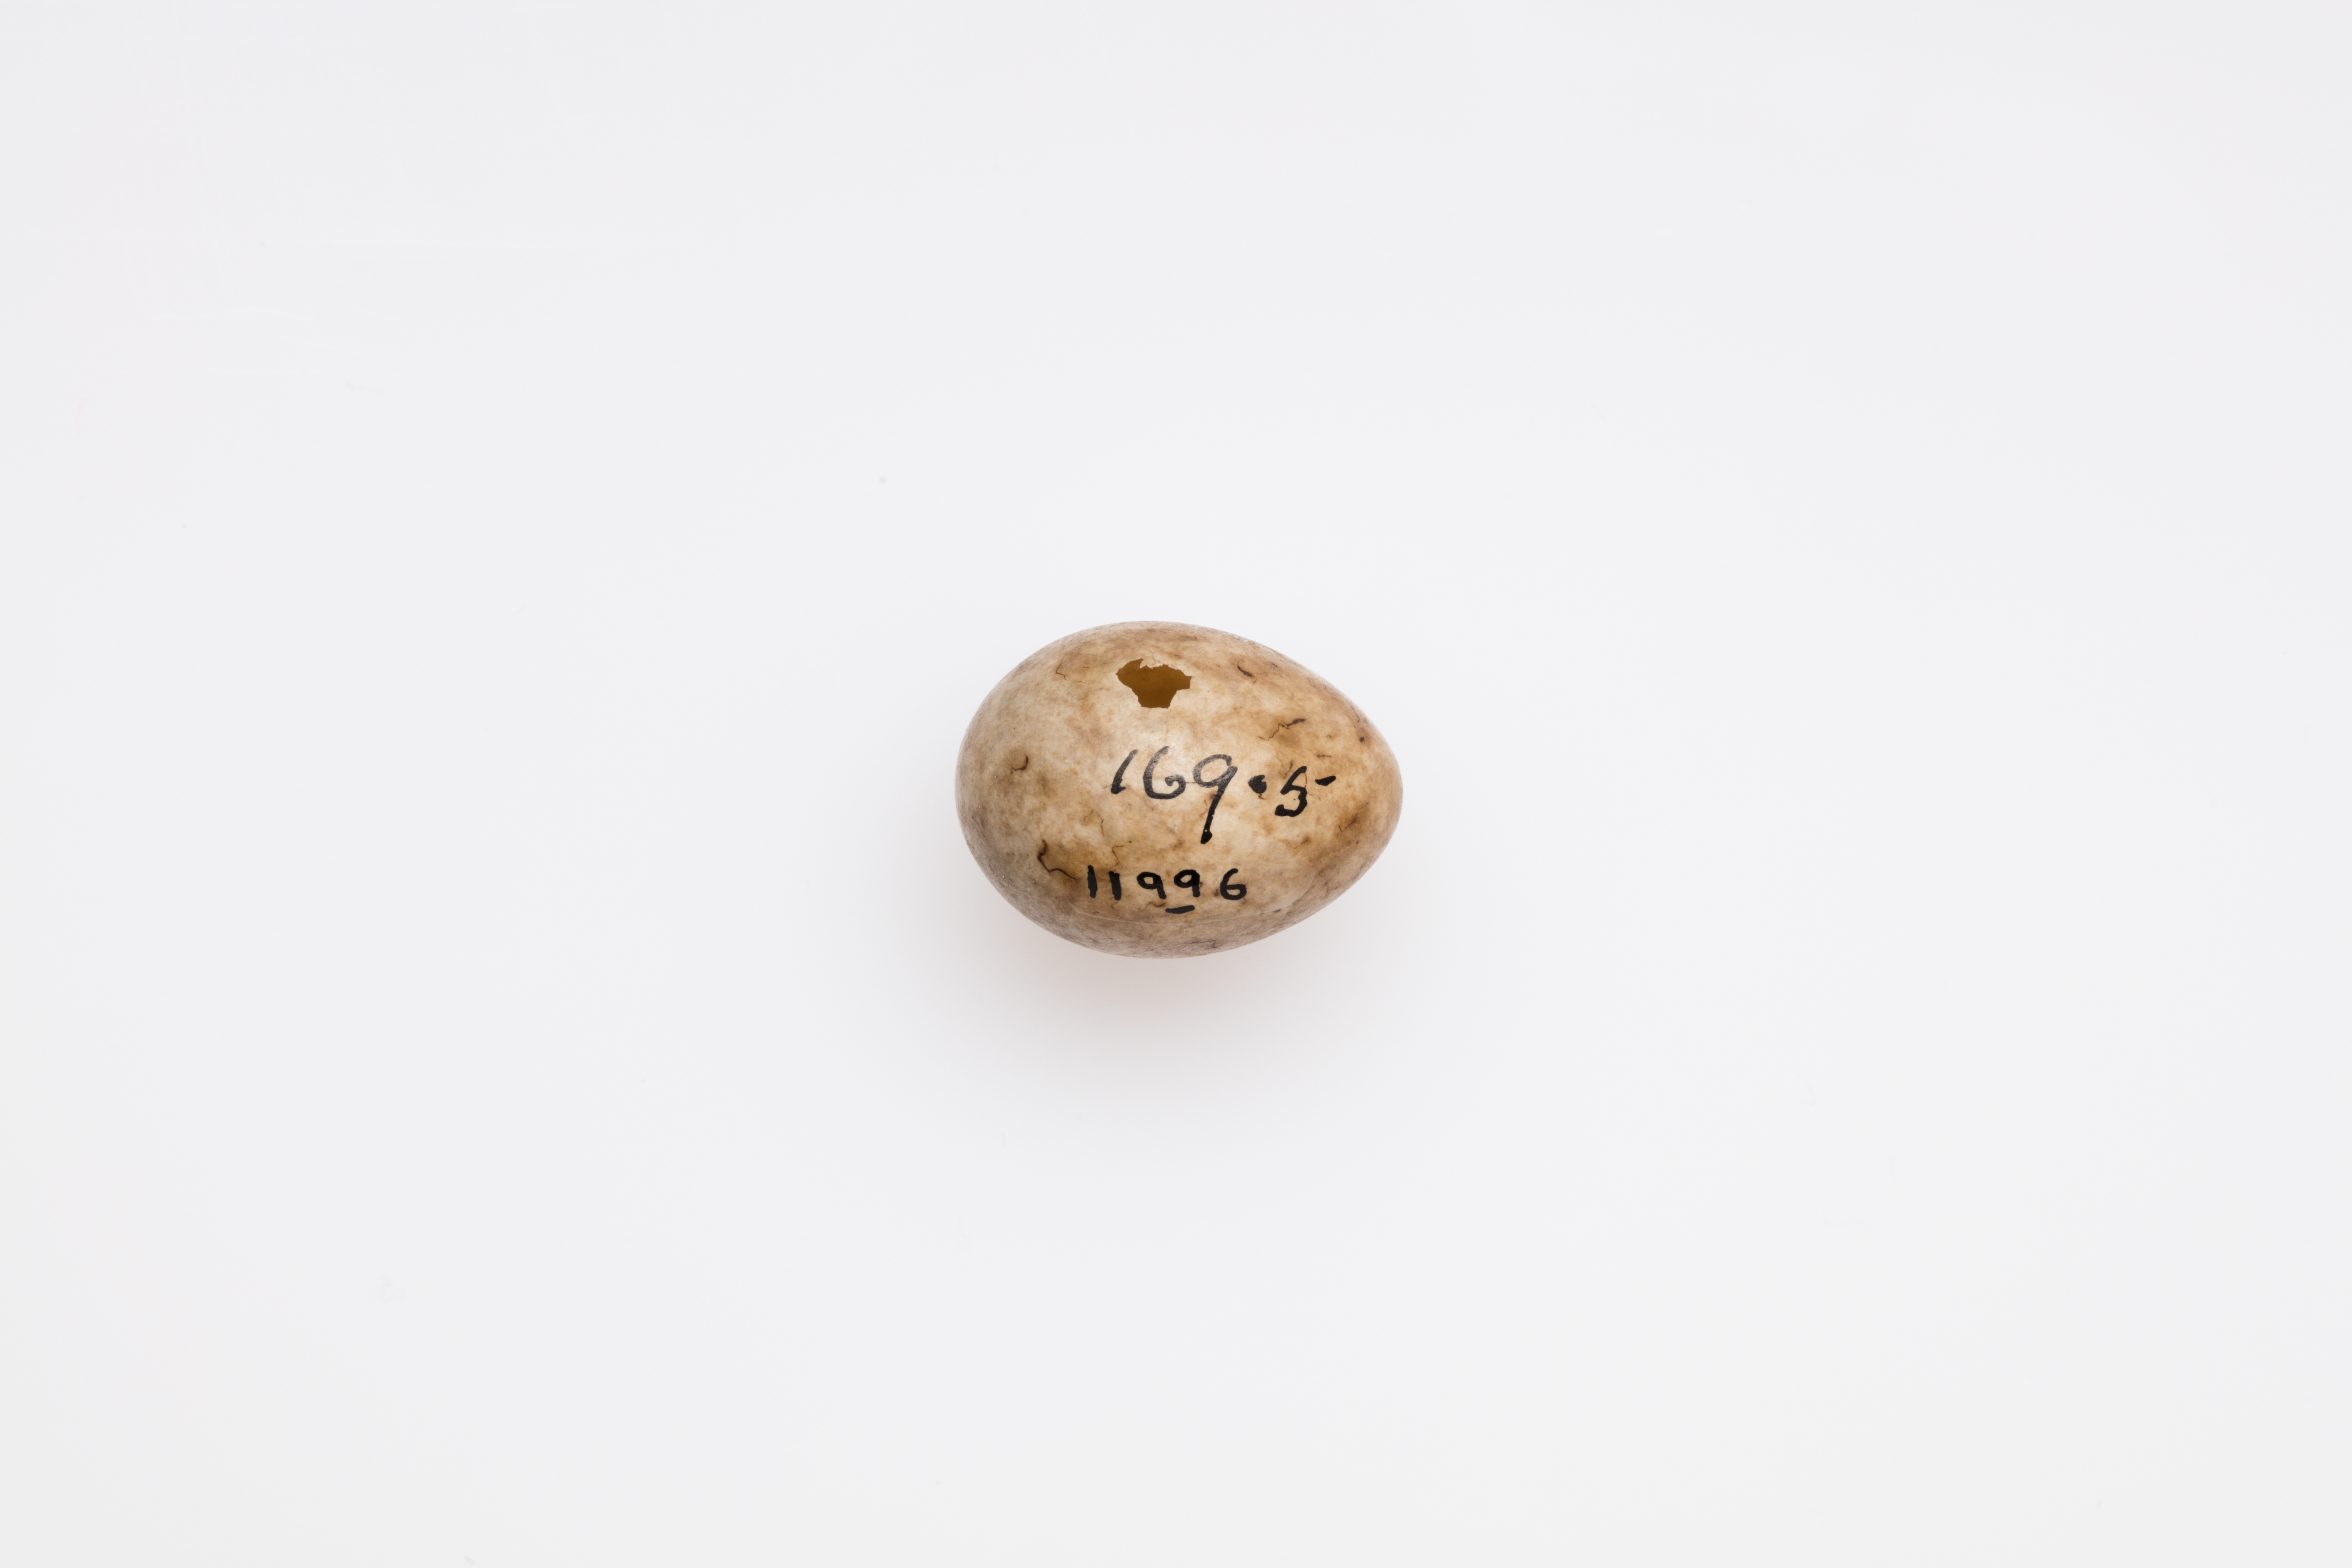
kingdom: Animalia
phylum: Chordata
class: Aves
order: Passeriformes
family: Sylviidae
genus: Sylvia
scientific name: Sylvia atricapilla
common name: Eurasian blackcap
